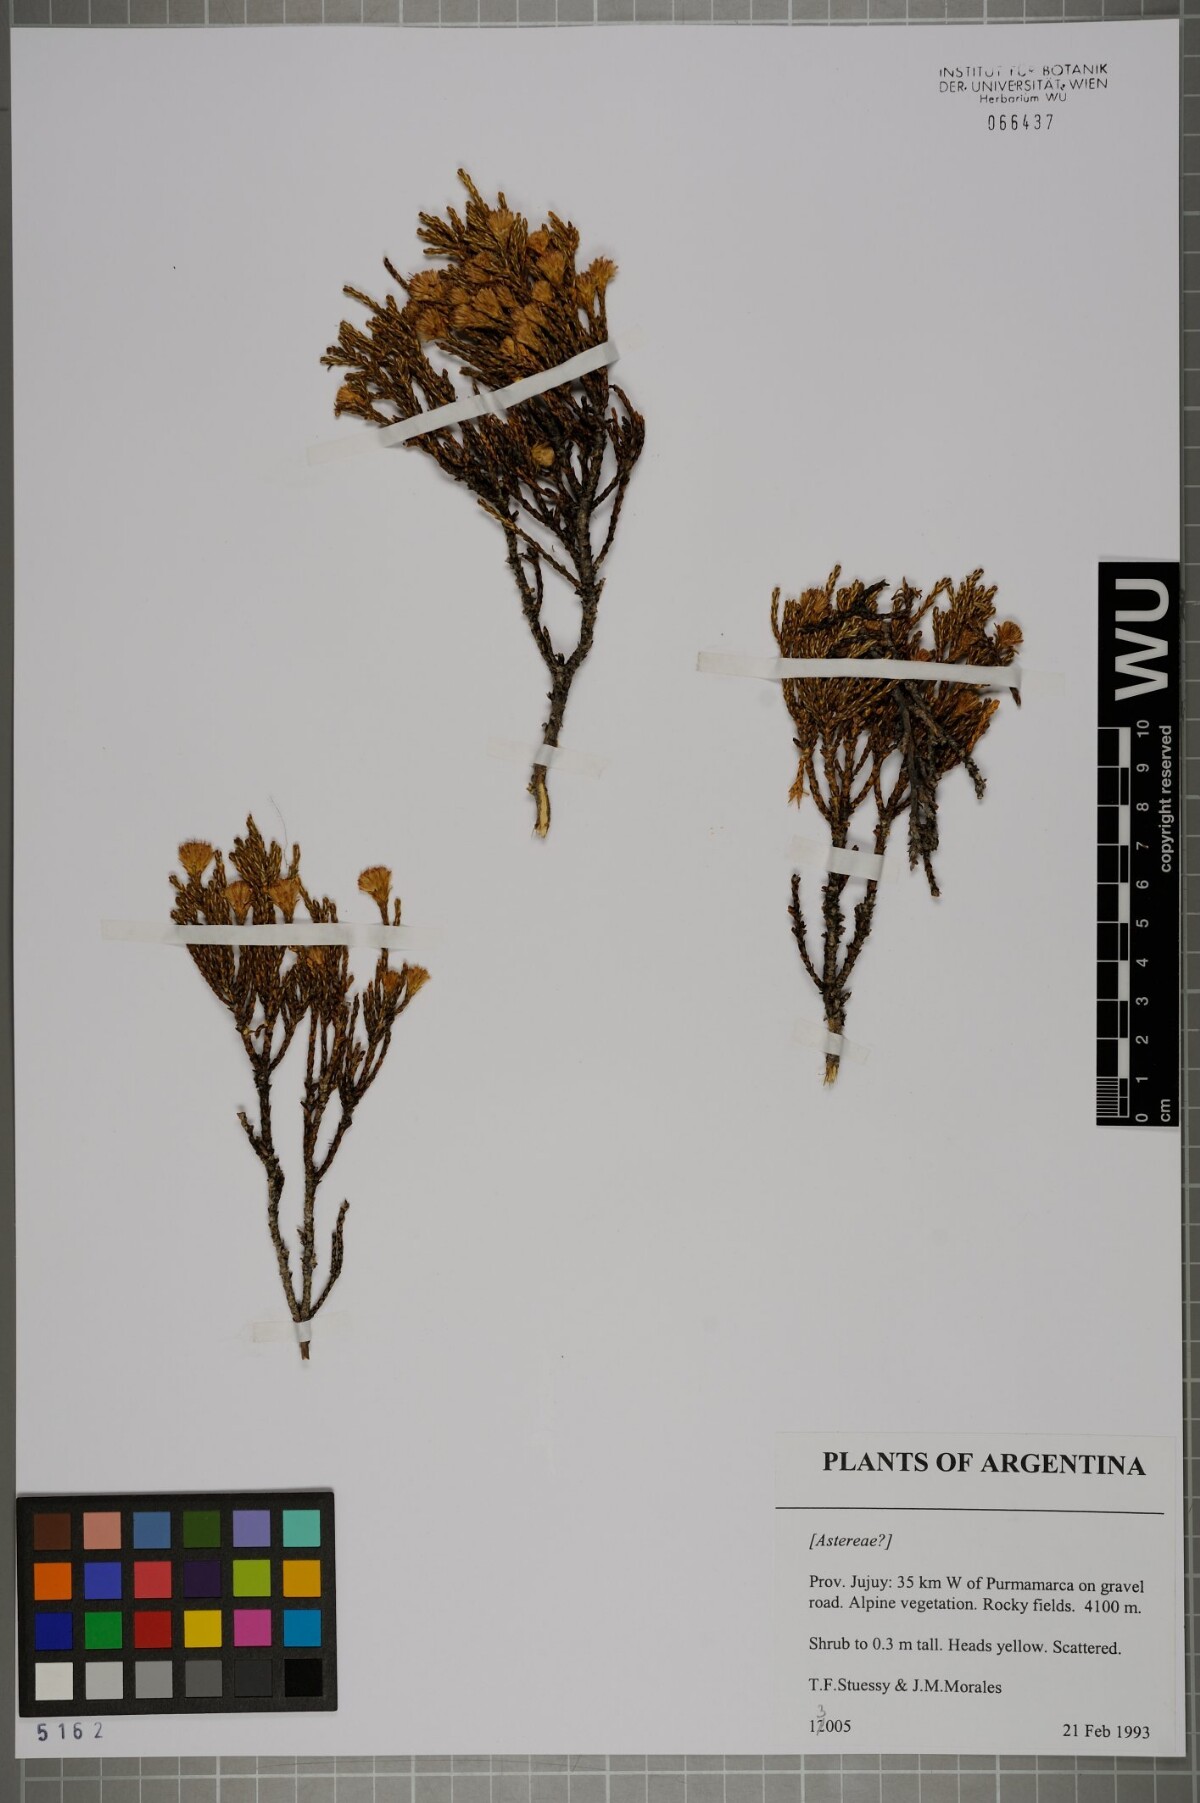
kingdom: Plantae
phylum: Tracheophyta
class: Magnoliopsida
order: Asterales
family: Asteraceae
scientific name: Asteraceae
